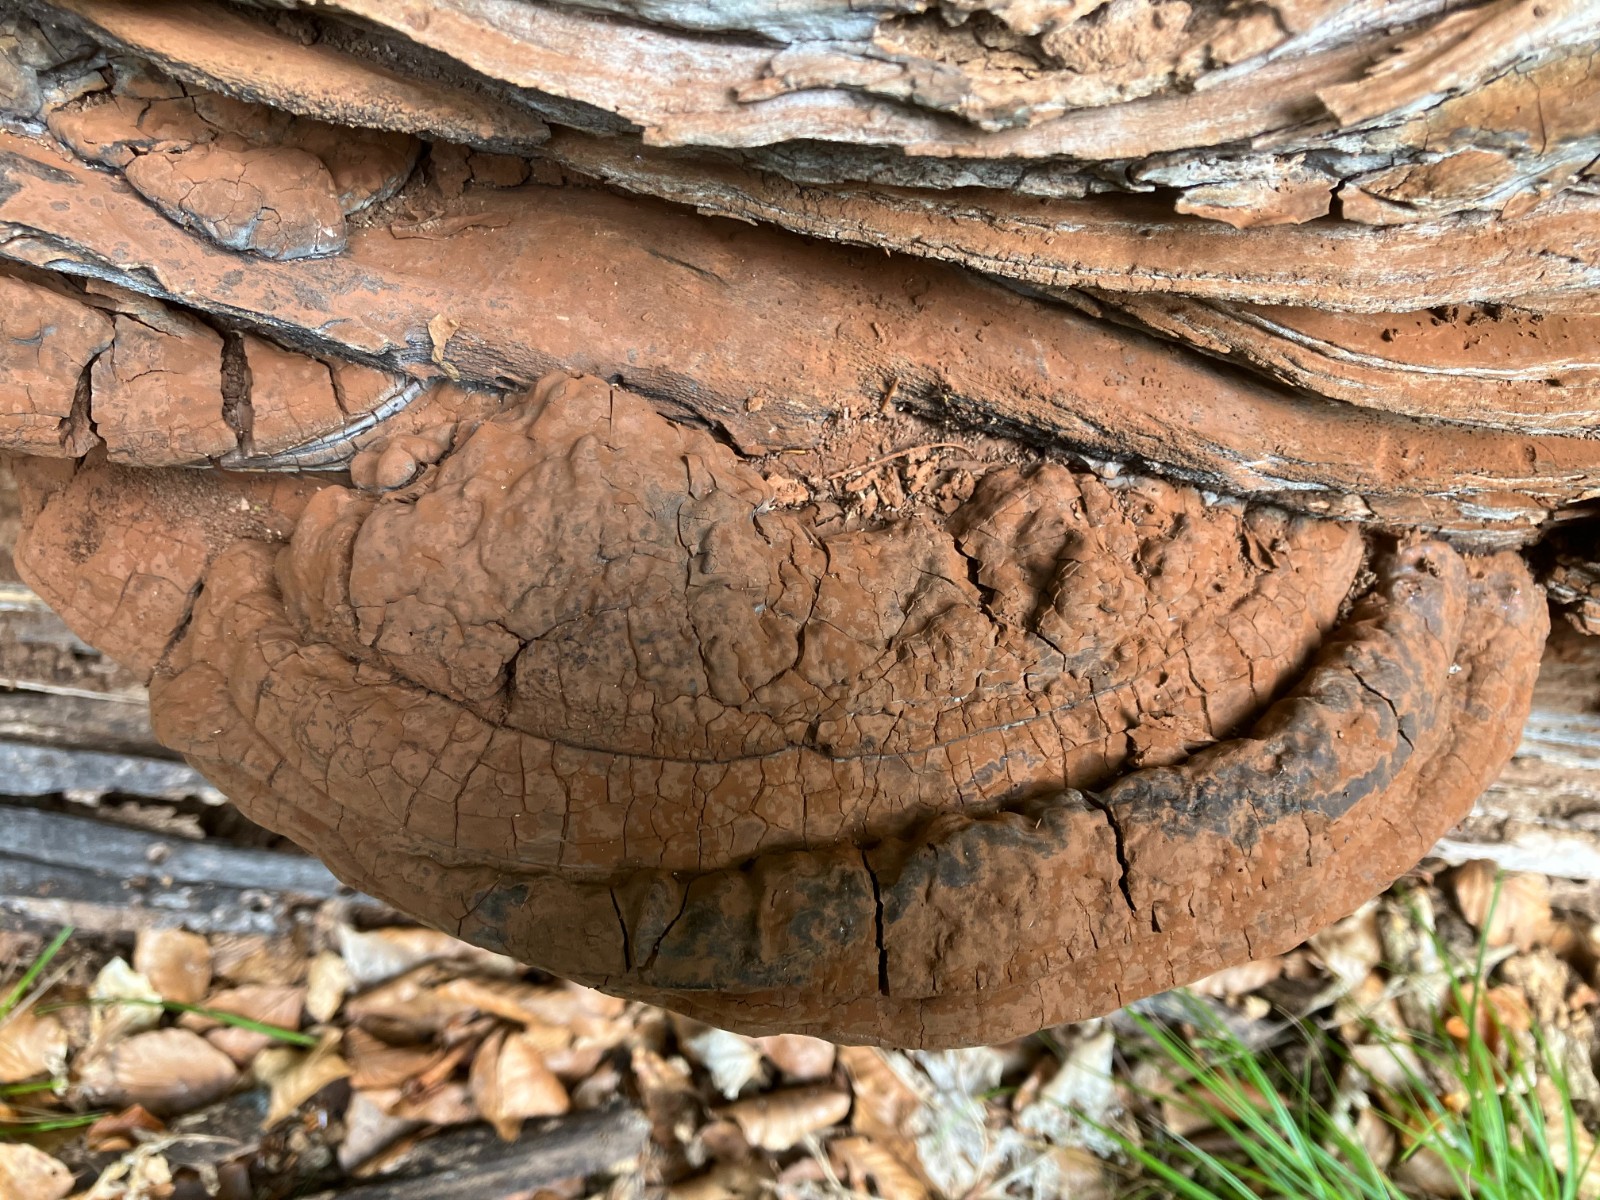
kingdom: Fungi
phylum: Basidiomycota
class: Agaricomycetes
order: Polyporales
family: Polyporaceae
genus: Ganoderma
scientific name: Ganoderma pfeifferi
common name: kobberrød lakporesvamp
